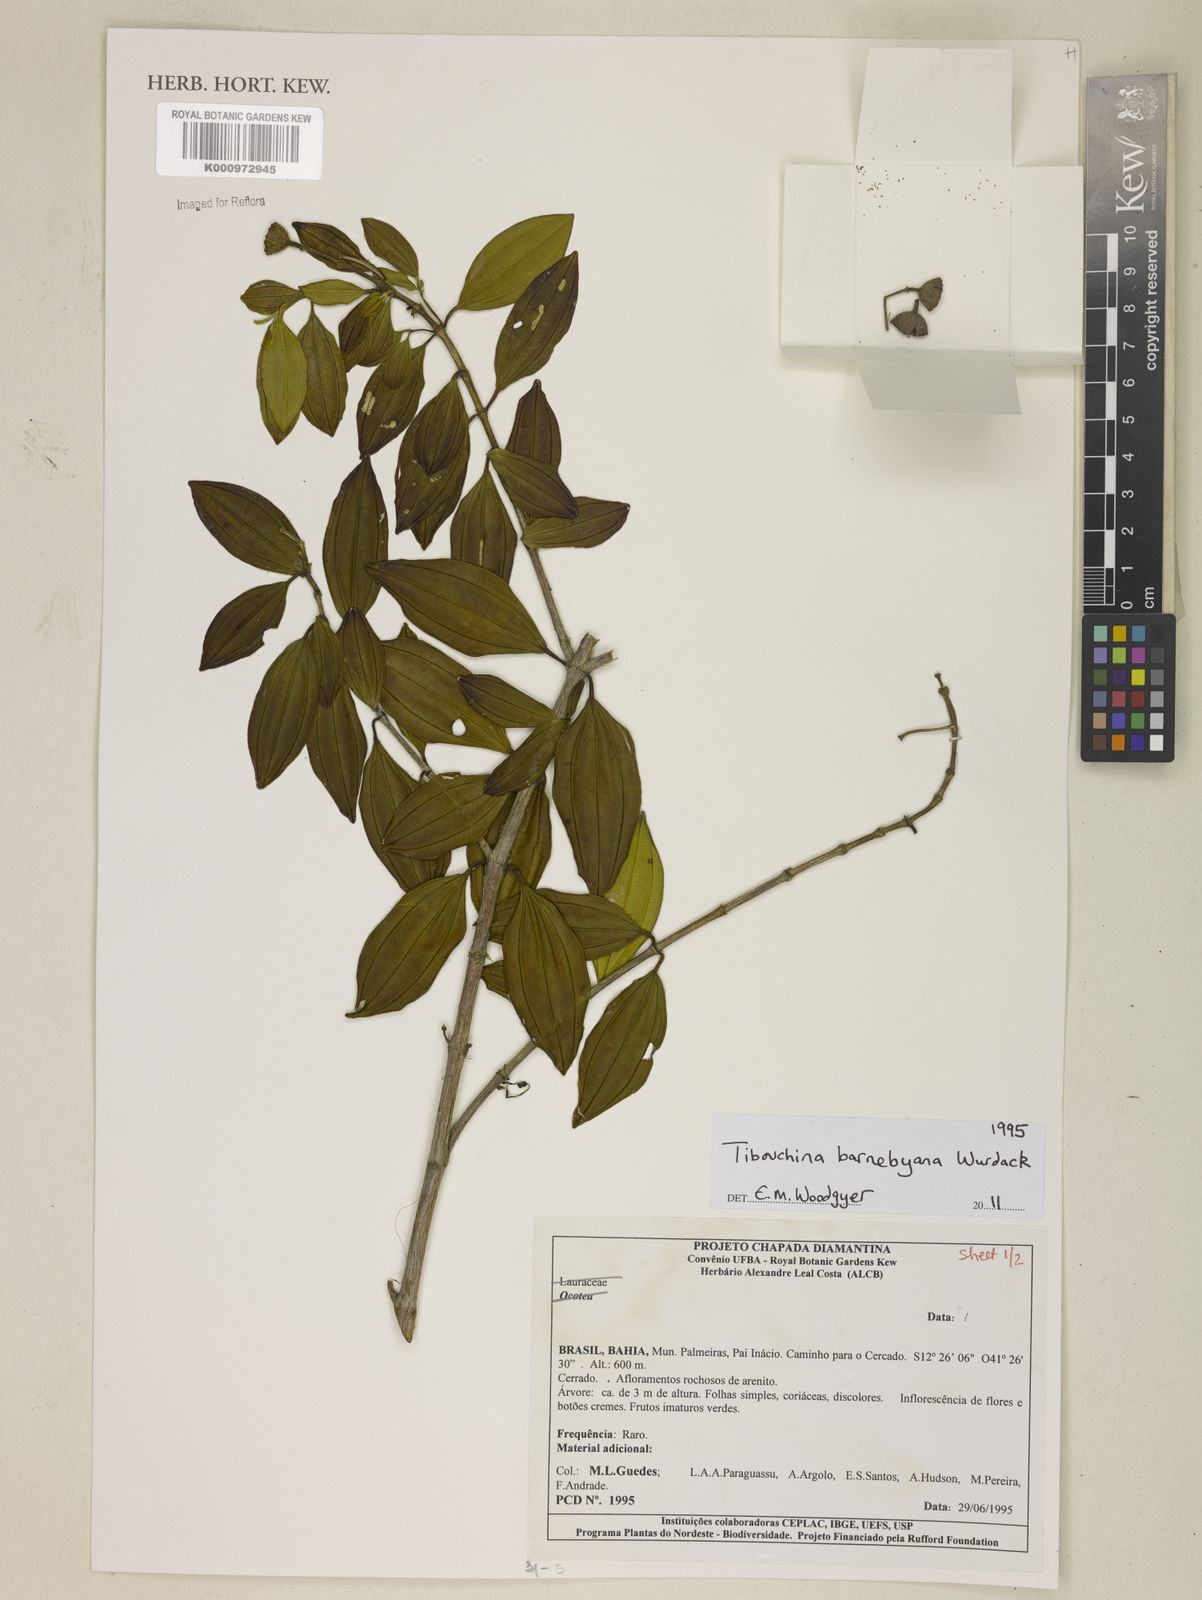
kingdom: Plantae
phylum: Tracheophyta
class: Magnoliopsida
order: Myrtales
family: Melastomataceae
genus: Pleroma
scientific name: Pleroma barnebyanum
